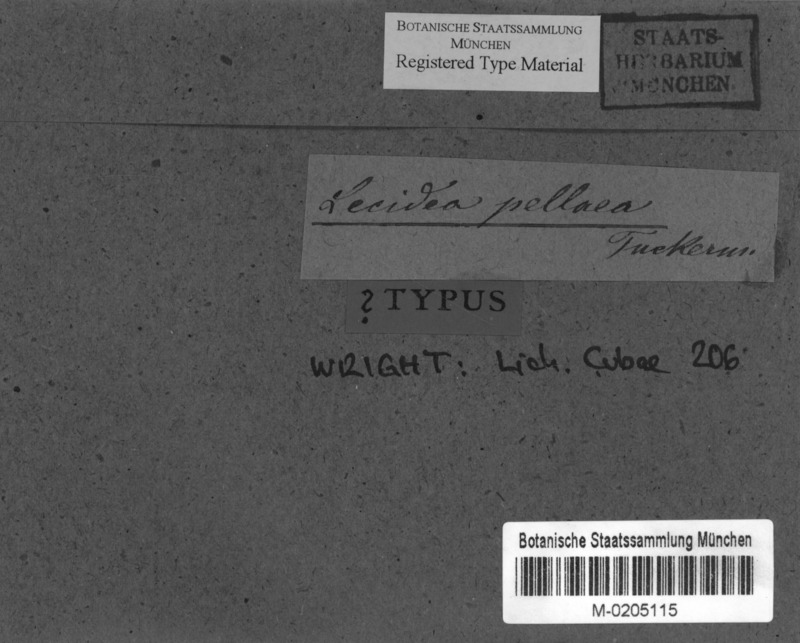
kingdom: Fungi
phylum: Ascomycota
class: Lecanoromycetes
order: Lecanorales
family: Ramalinaceae
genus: Bacidia
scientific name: Bacidia
